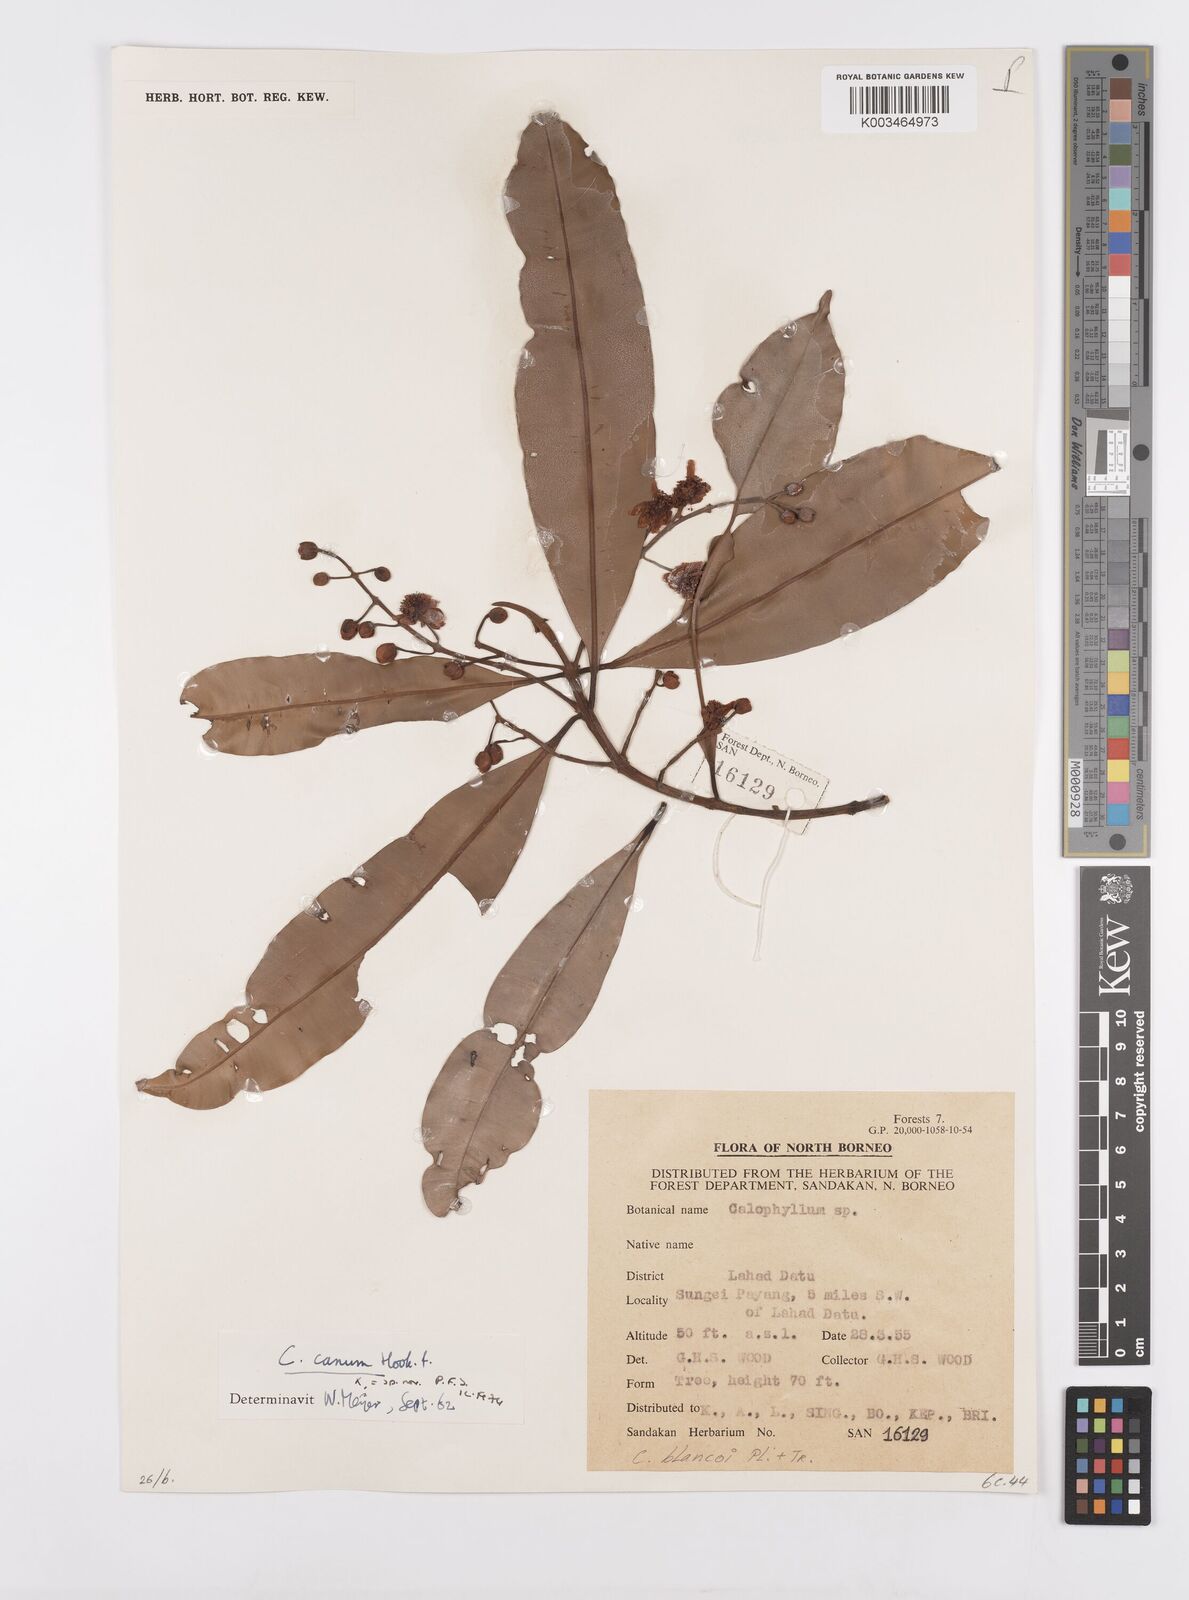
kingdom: Plantae
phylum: Tracheophyta
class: Magnoliopsida
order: Malpighiales
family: Calophyllaceae
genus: Calophyllum
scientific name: Calophyllum blancoi
